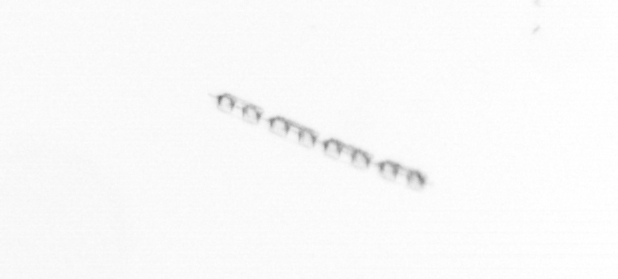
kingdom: Chromista
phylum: Ochrophyta
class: Bacillariophyceae
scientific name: Bacillariophyceae
